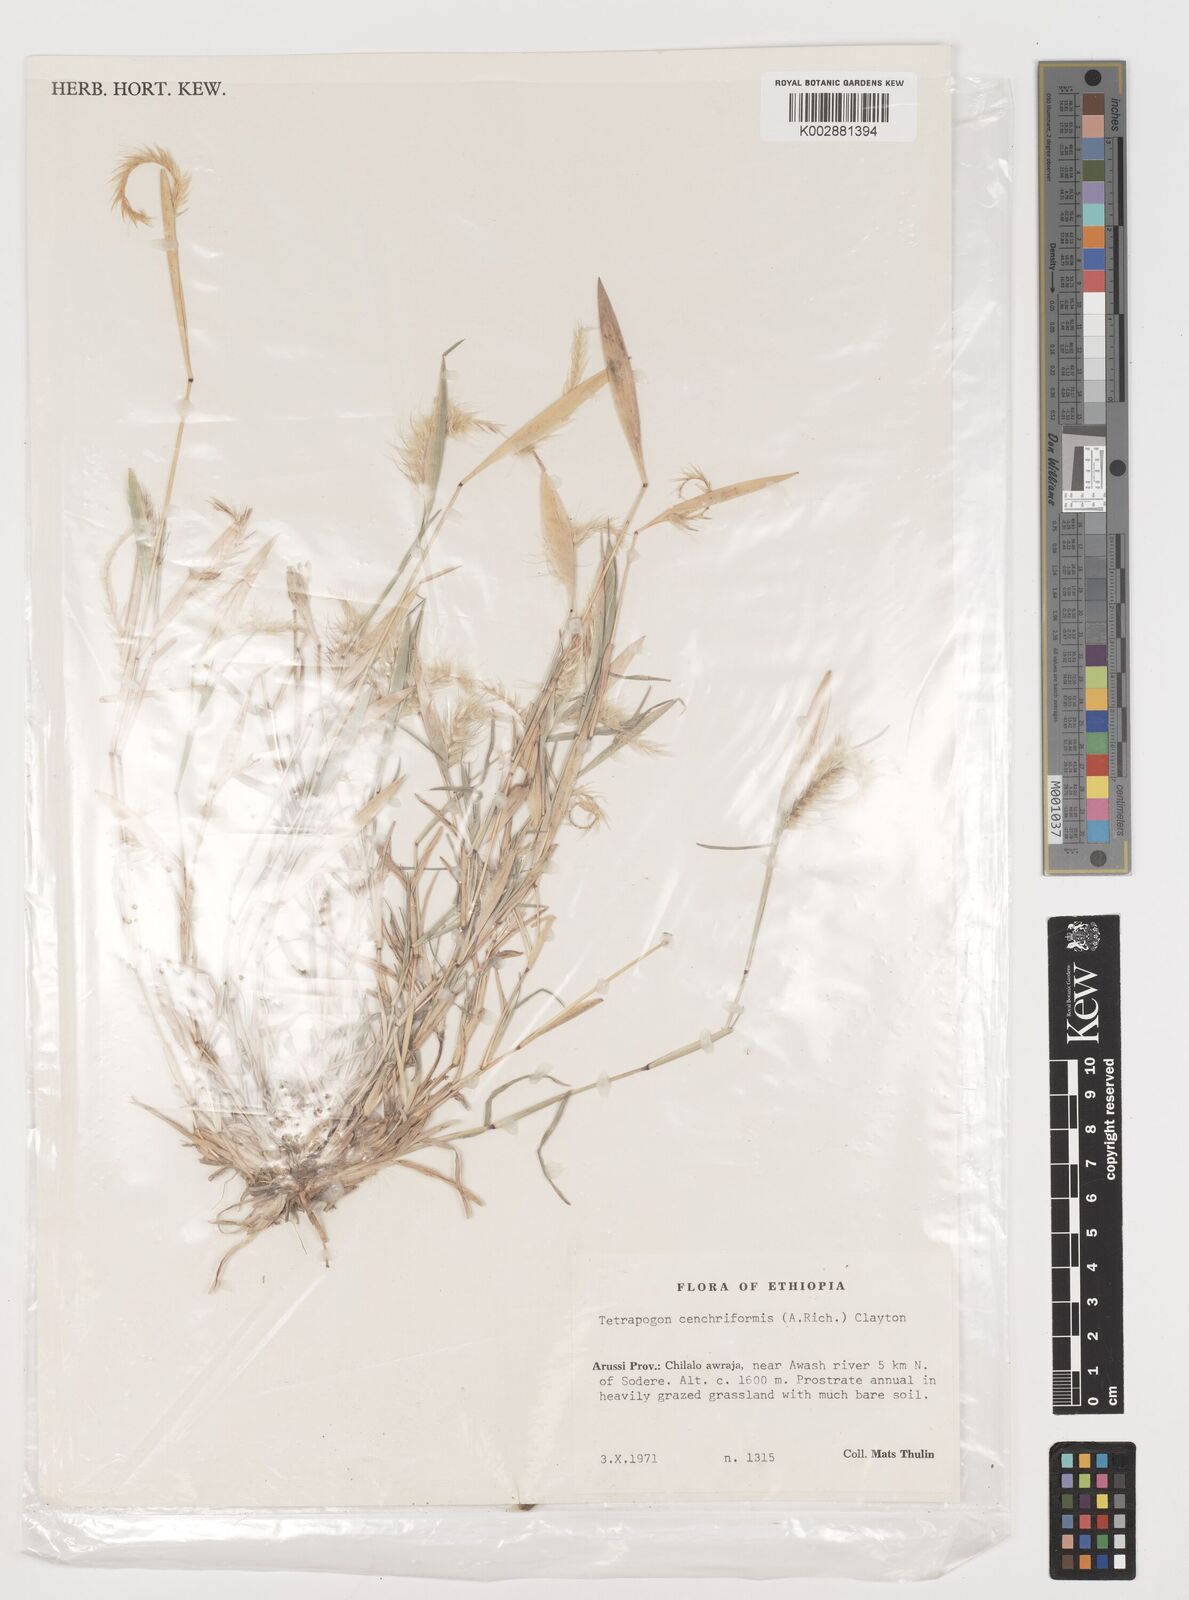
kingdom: Plantae
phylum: Tracheophyta
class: Liliopsida
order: Poales
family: Poaceae
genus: Tetrapogon
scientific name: Tetrapogon cenchriformis
